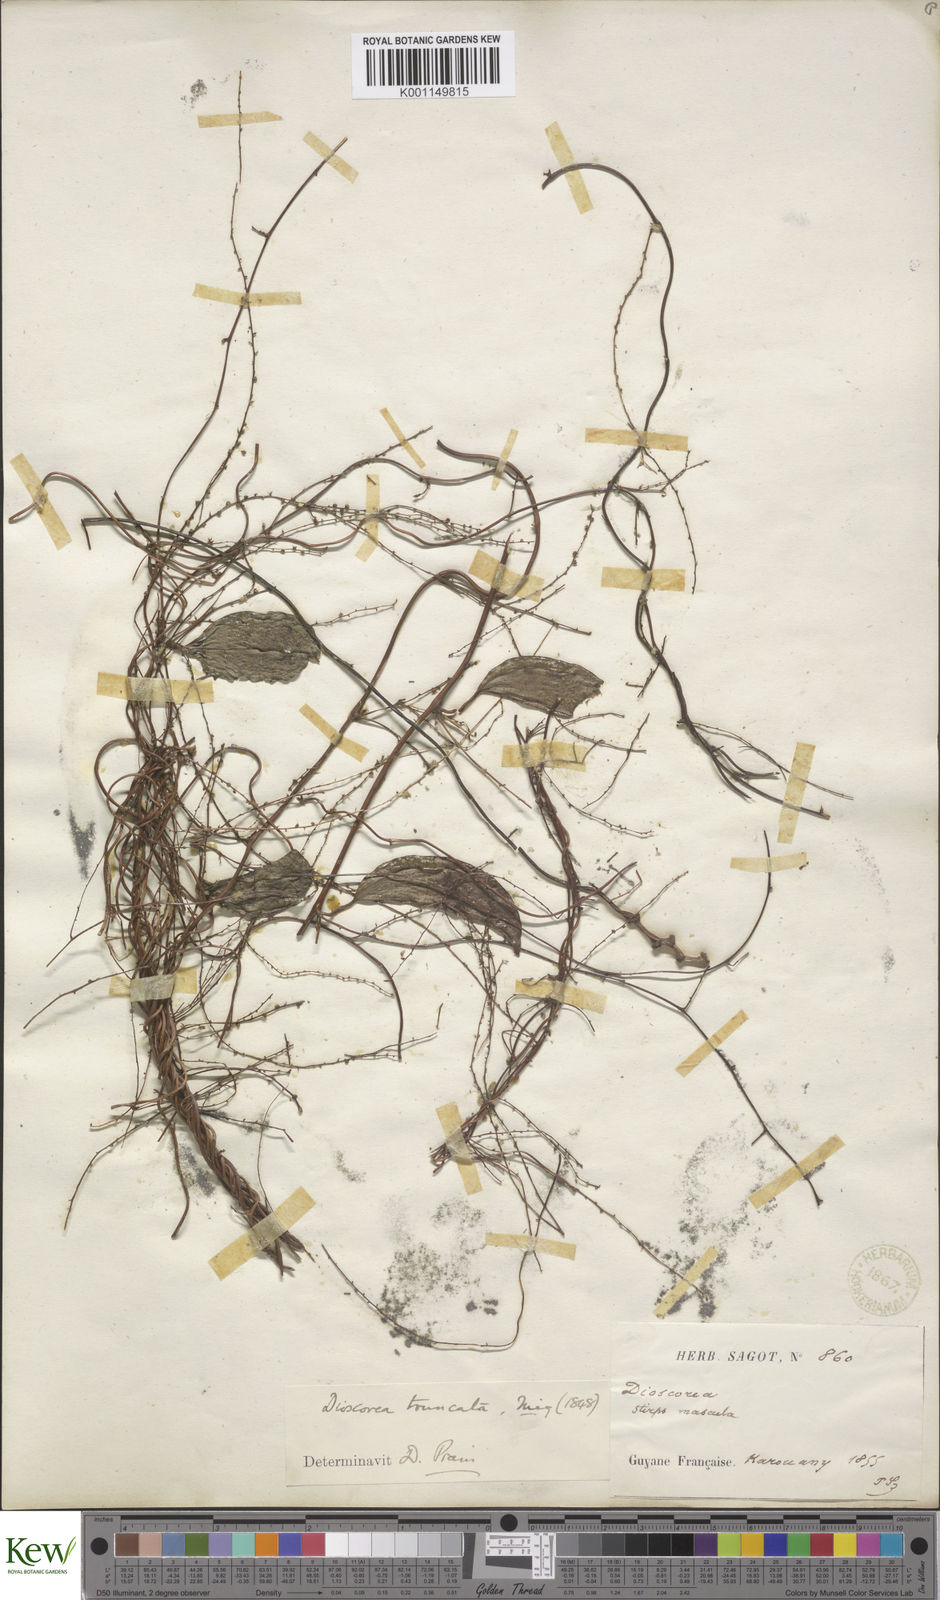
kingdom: Plantae
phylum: Tracheophyta
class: Liliopsida
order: Dioscoreales
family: Dioscoreaceae
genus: Dioscorea
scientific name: Dioscorea
